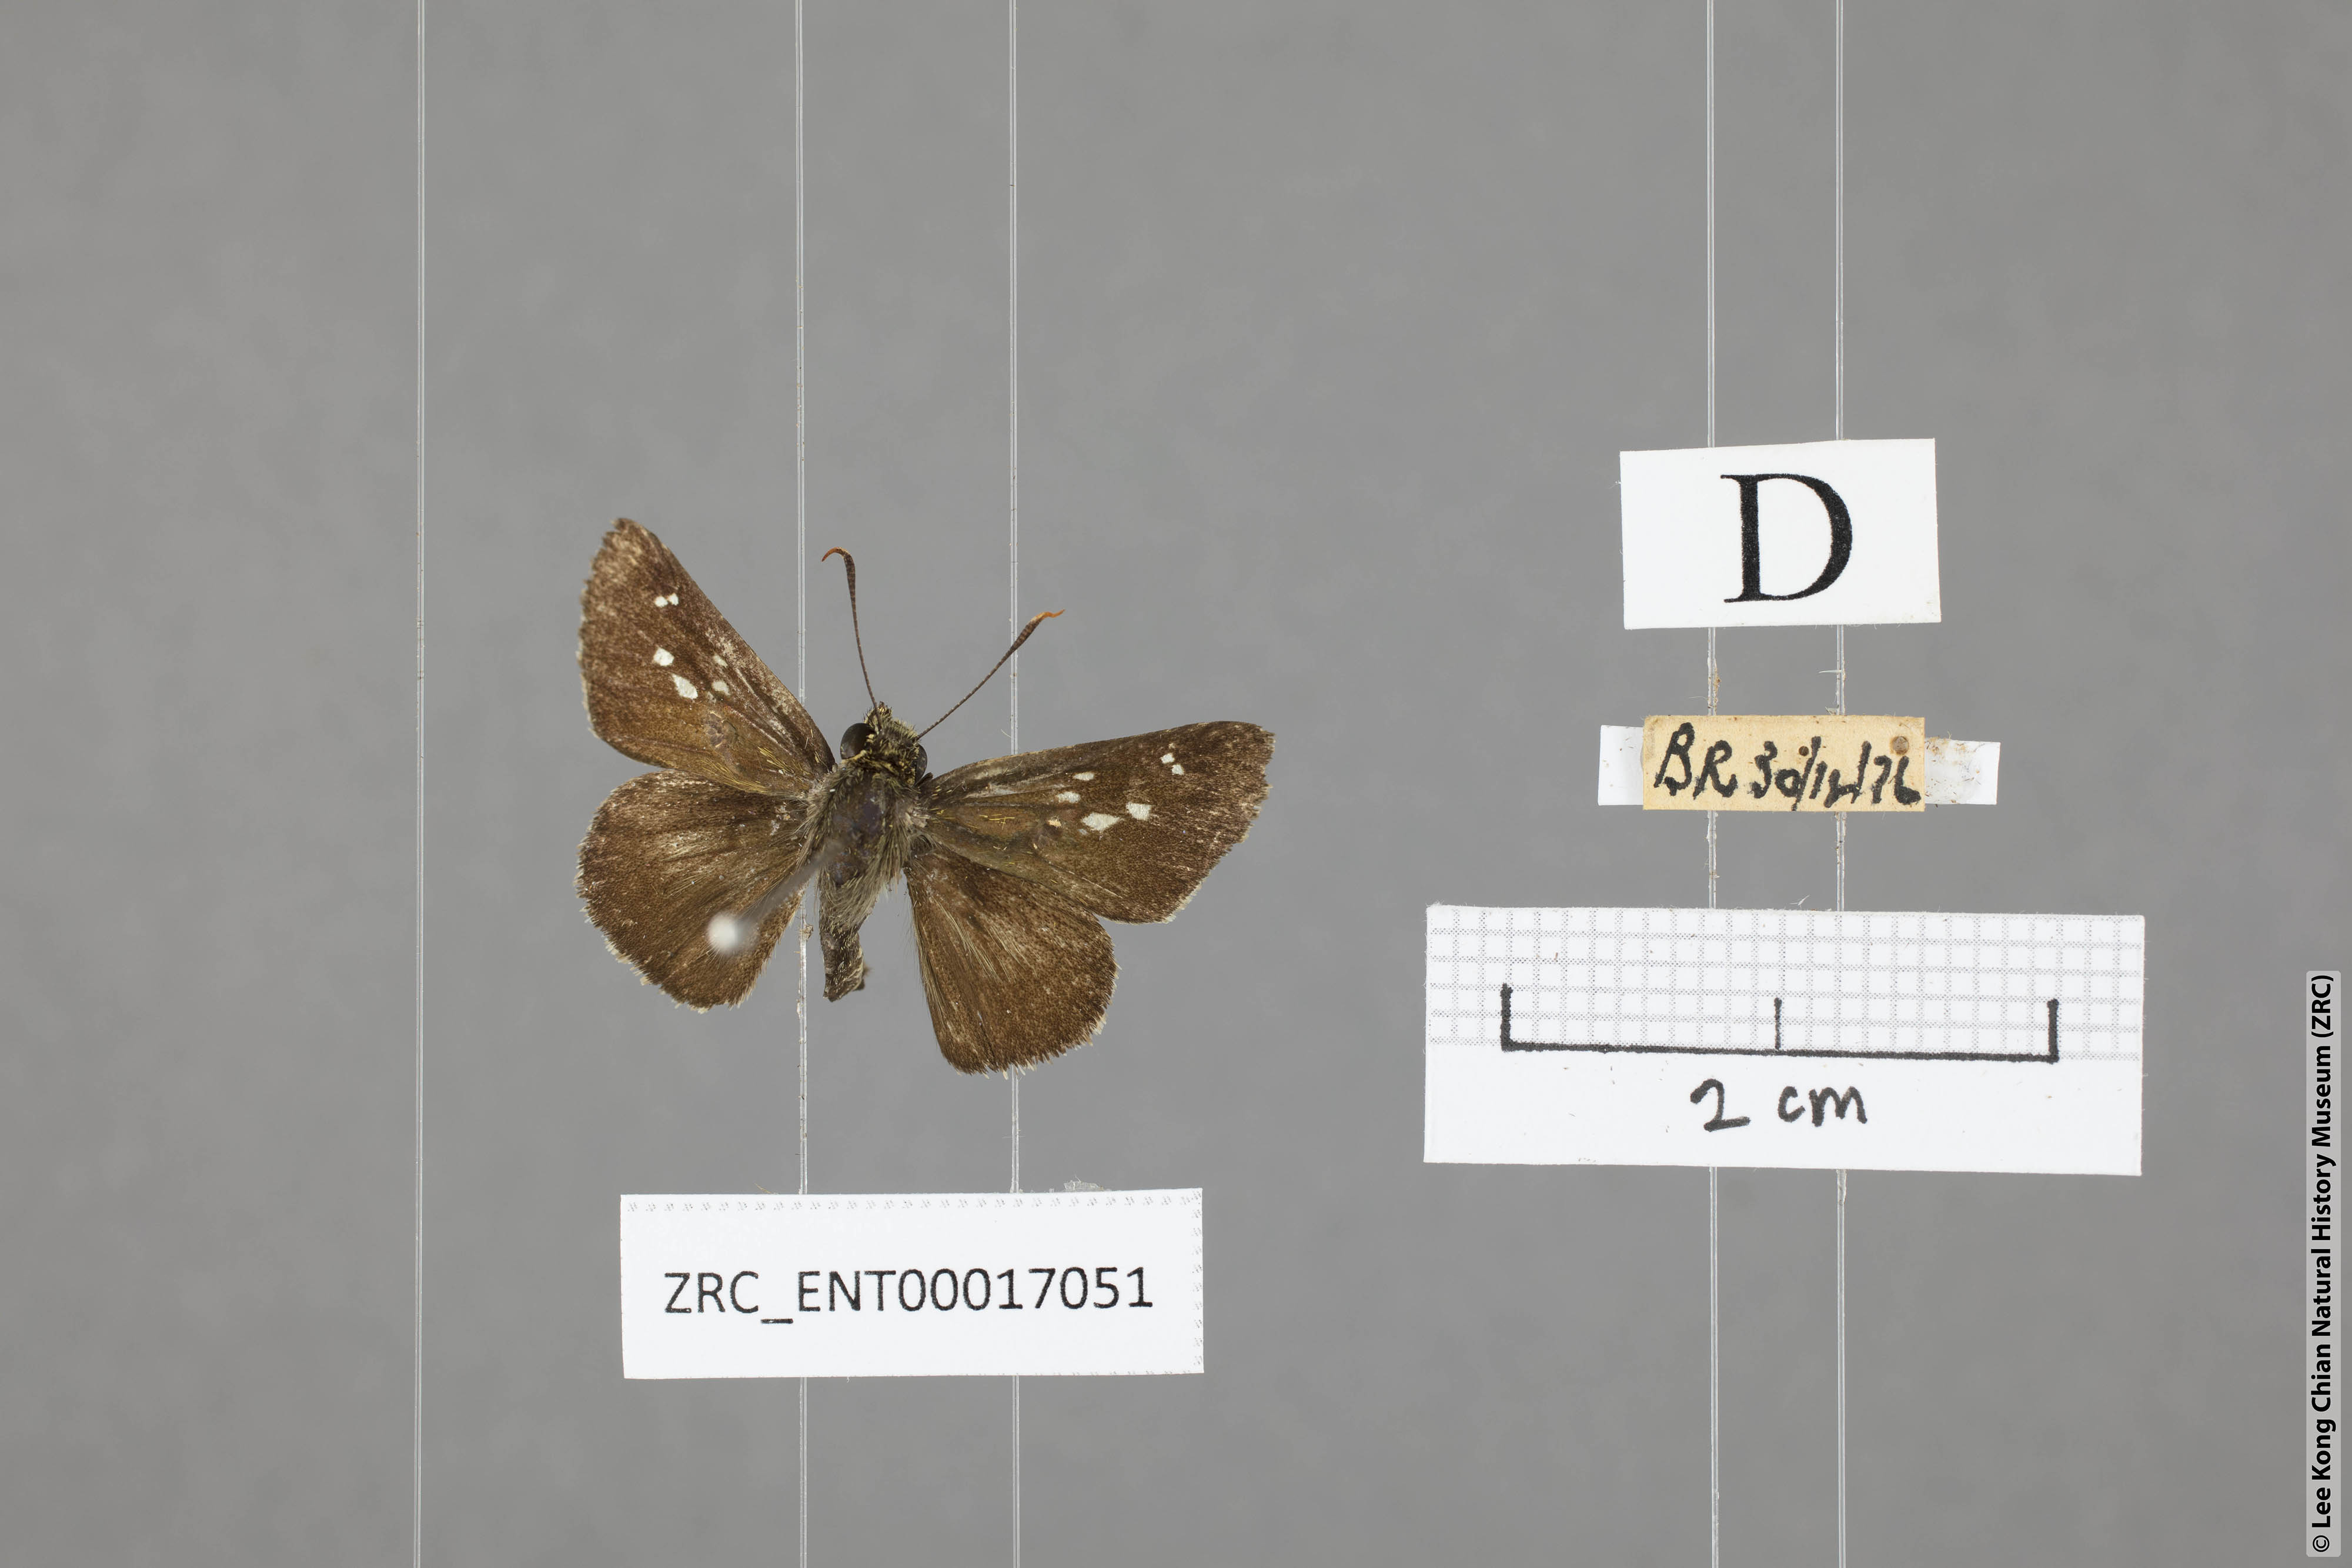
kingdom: Animalia
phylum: Arthropoda
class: Insecta
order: Lepidoptera
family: Hesperiidae
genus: Halpe
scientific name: Halpe porus
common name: Moore's ace
